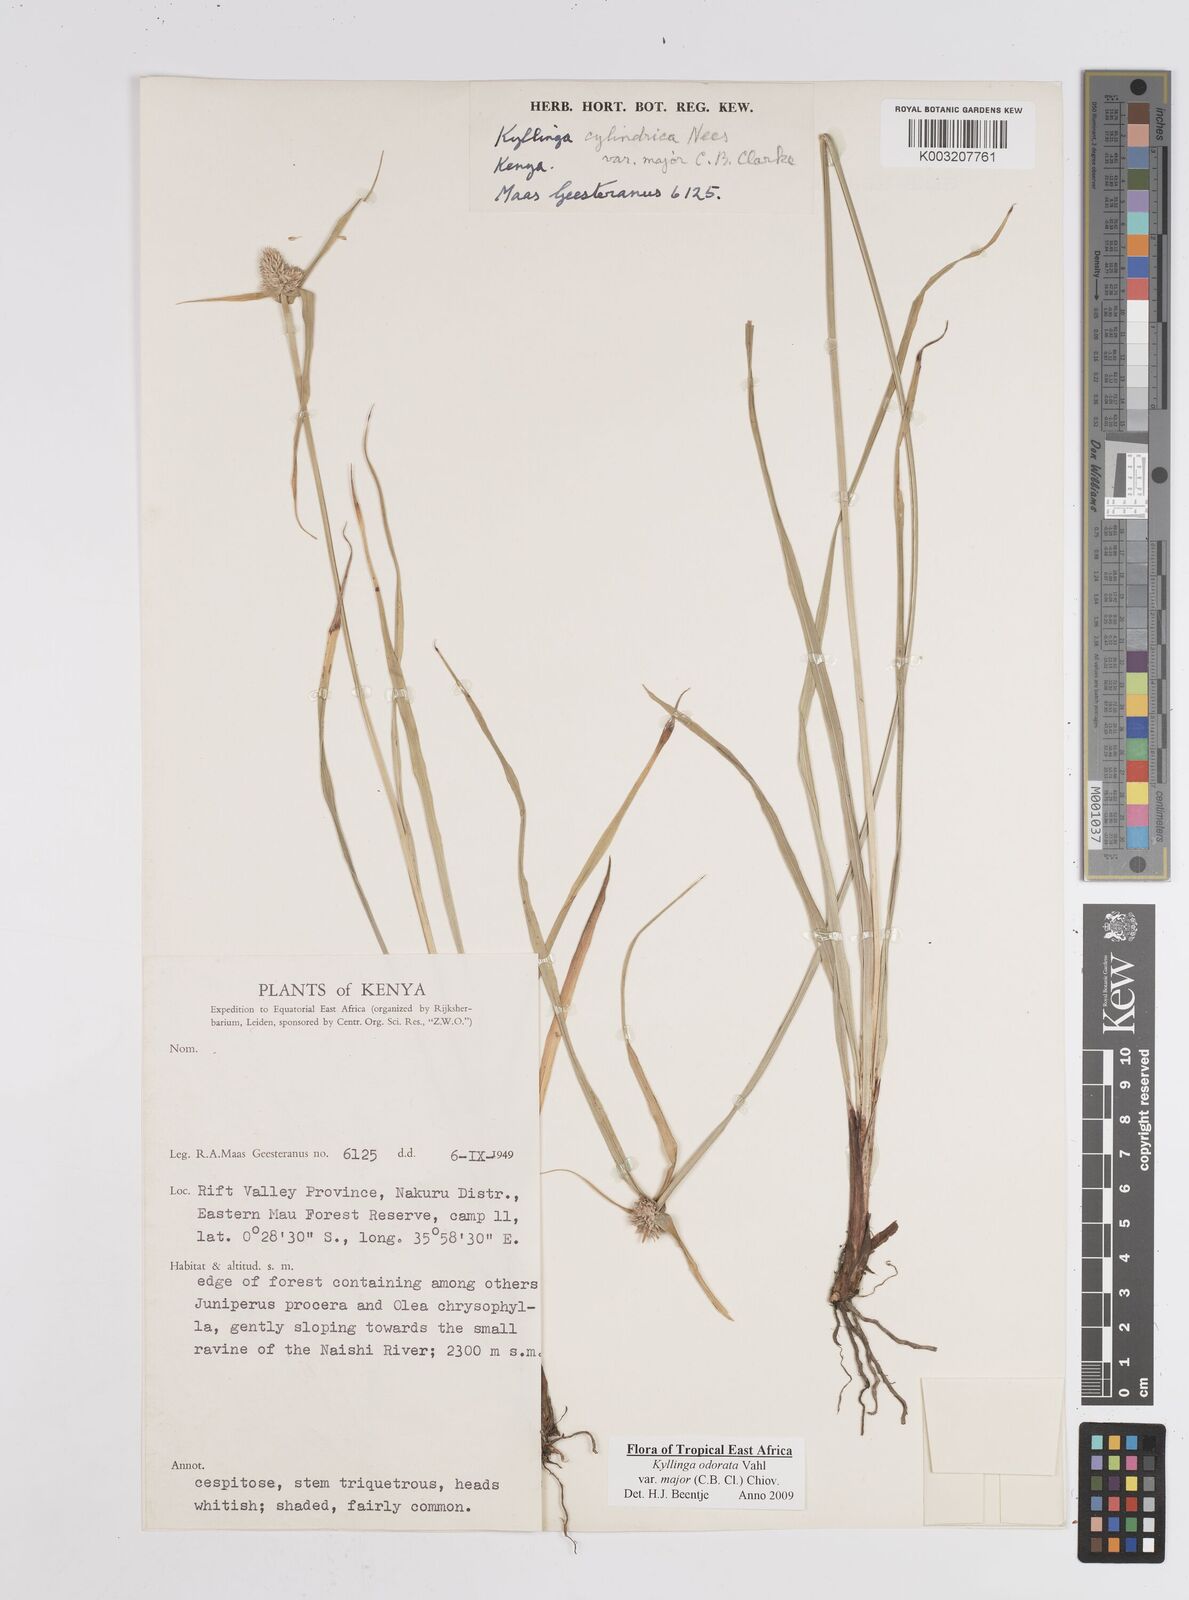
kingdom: Plantae
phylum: Tracheophyta
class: Liliopsida
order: Poales
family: Cyperaceae
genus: Cyperus
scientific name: Cyperus
